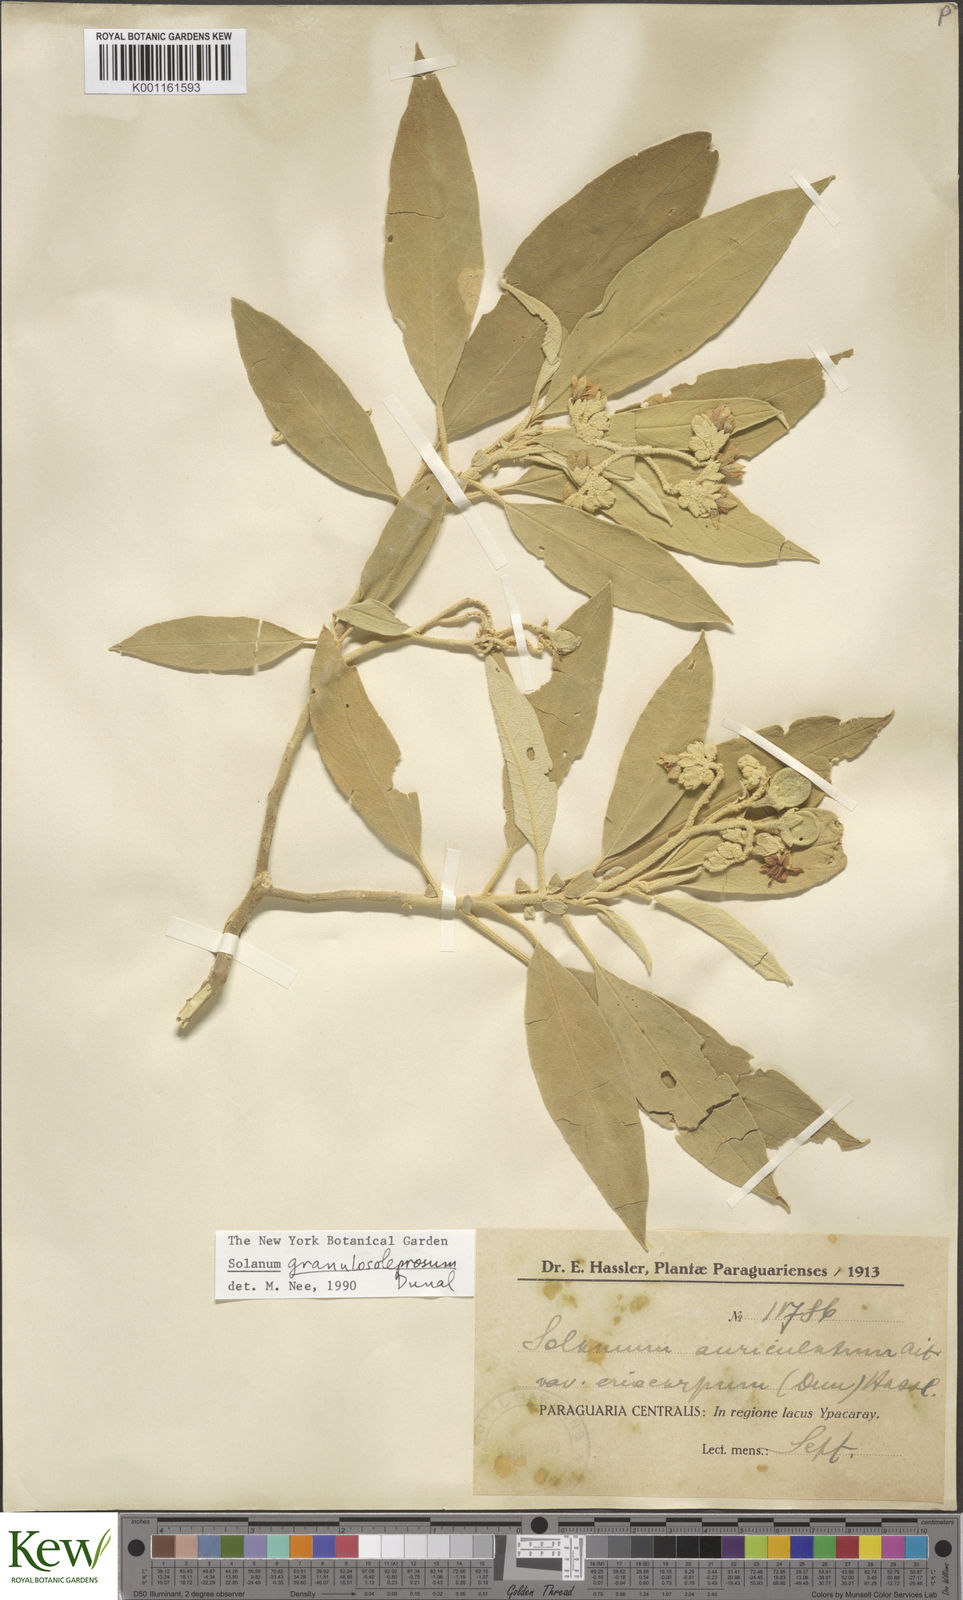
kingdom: Plantae
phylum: Tracheophyta
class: Magnoliopsida
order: Solanales
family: Solanaceae
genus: Solanum
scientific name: Solanum granulosoleprosum
